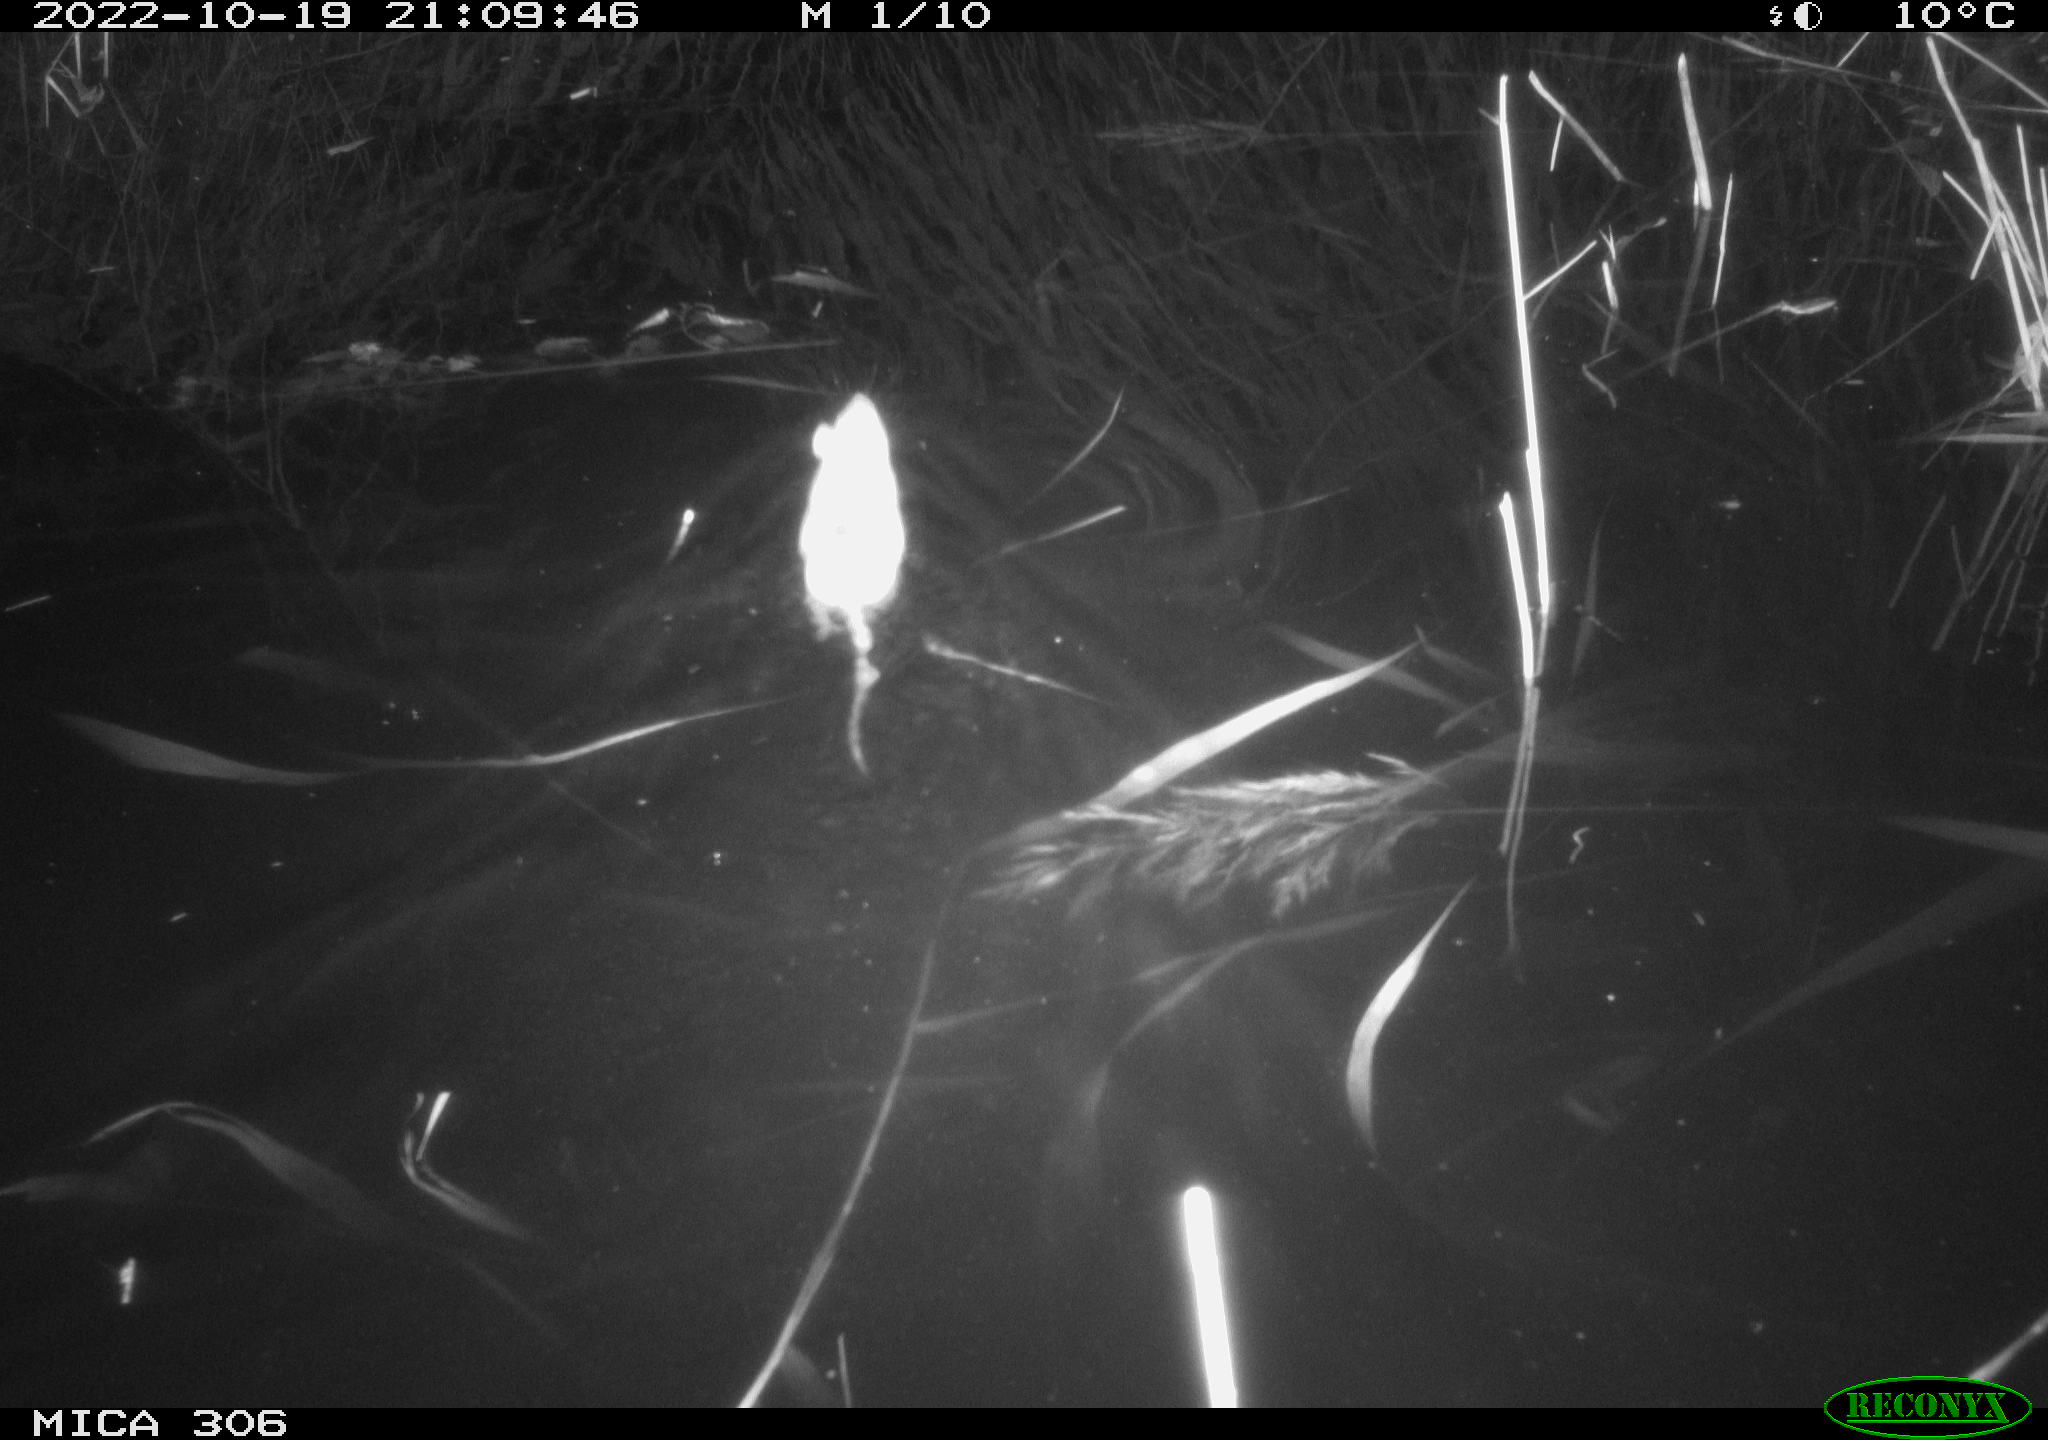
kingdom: Animalia
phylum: Chordata
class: Mammalia
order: Rodentia
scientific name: Rodentia
